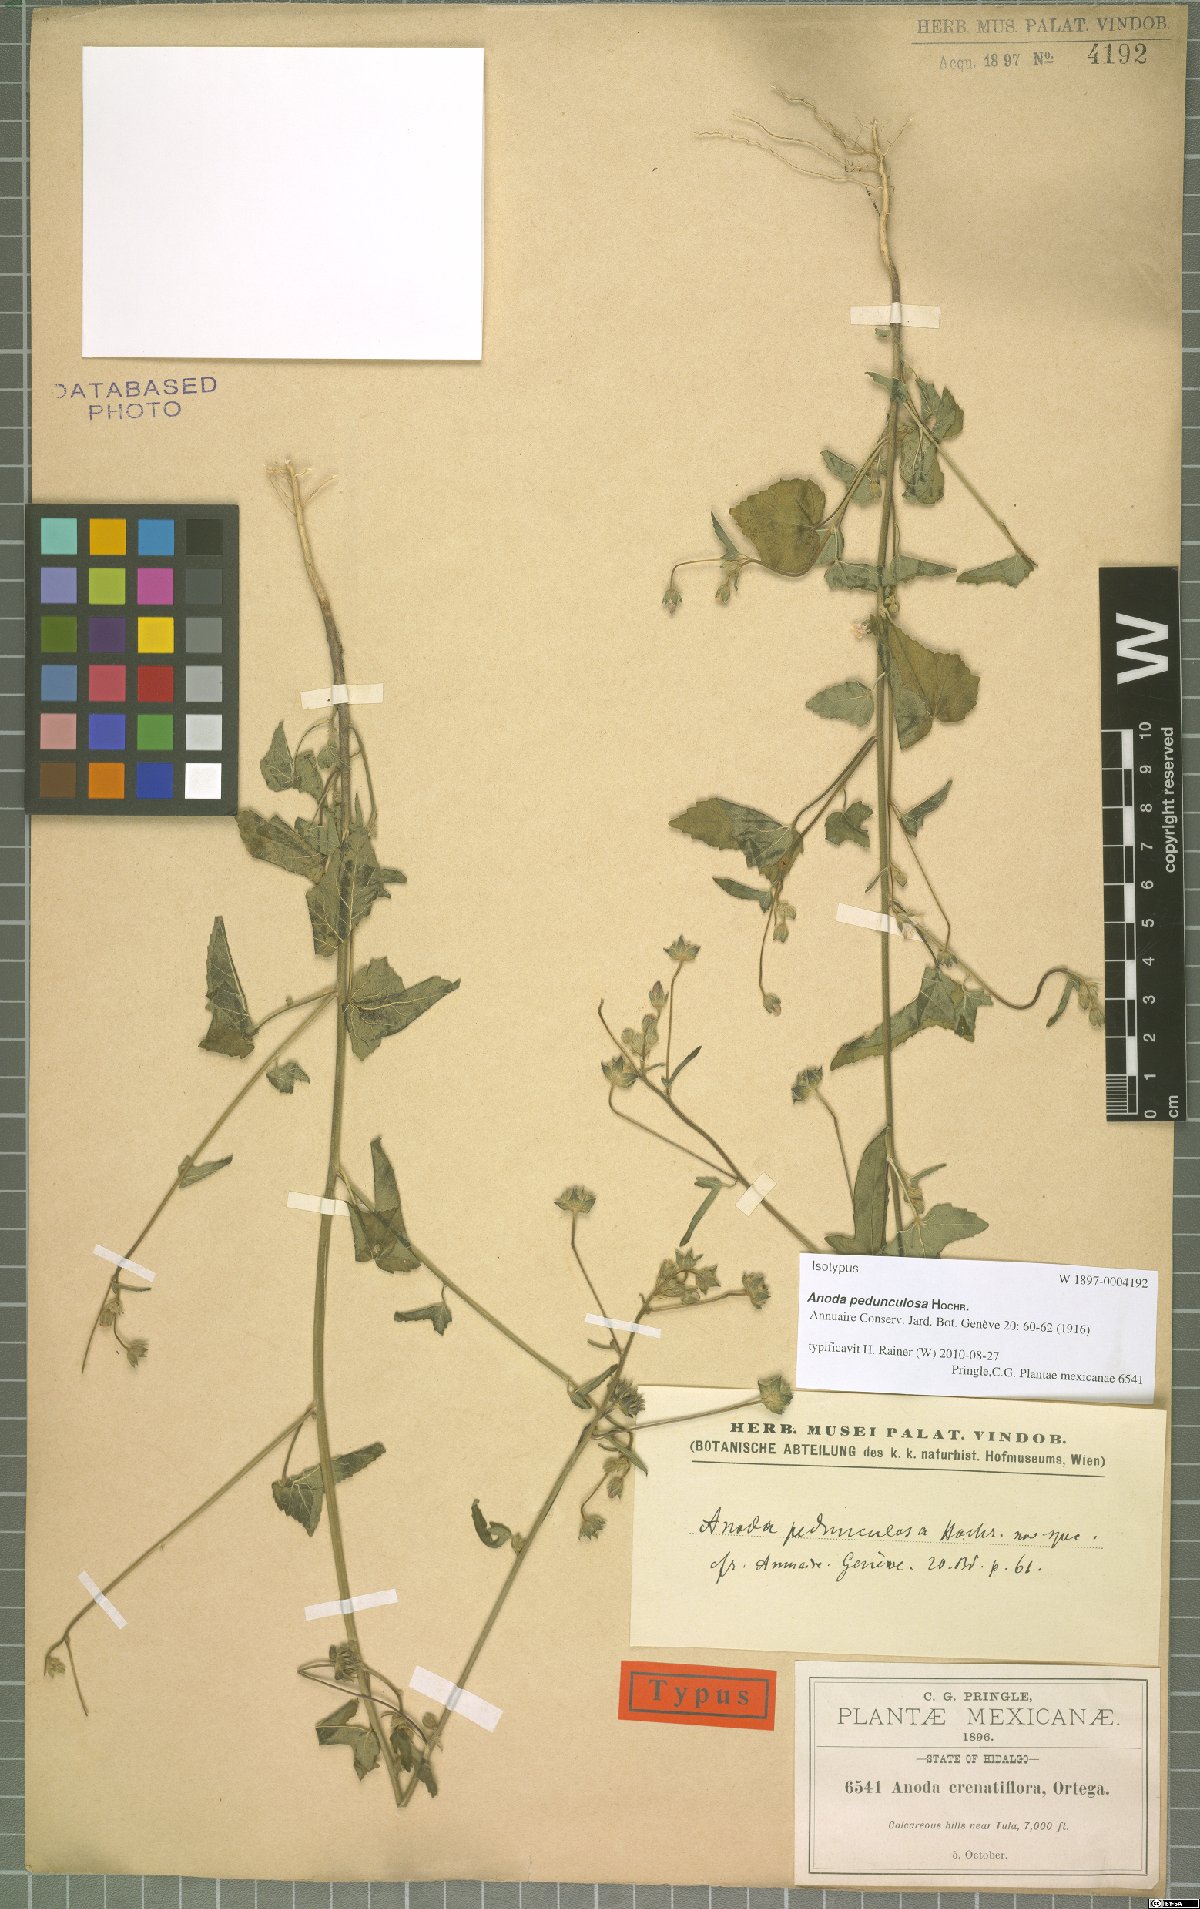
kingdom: Plantae
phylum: Tracheophyta
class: Magnoliopsida
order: Malvales
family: Malvaceae
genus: Anoda
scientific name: Anoda pedunculosa
